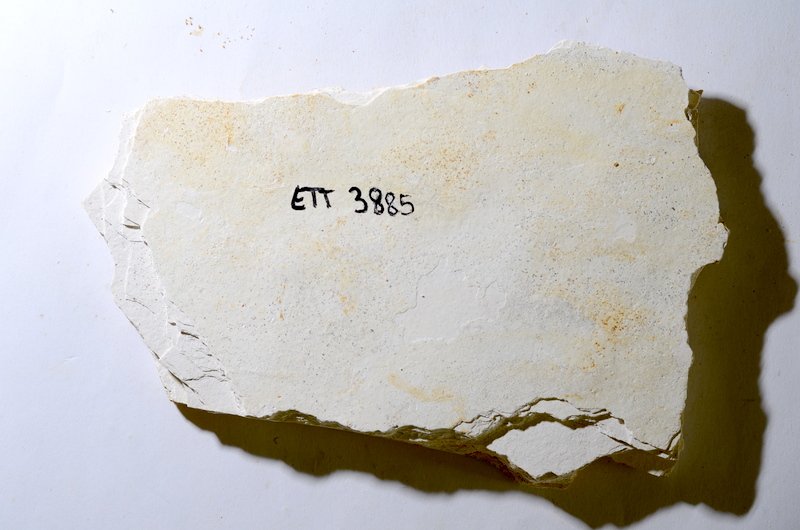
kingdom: Animalia
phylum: Chordata
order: Salmoniformes
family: Orthogonikleithridae
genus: Orthogonikleithrus
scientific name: Orthogonikleithrus hoelli
